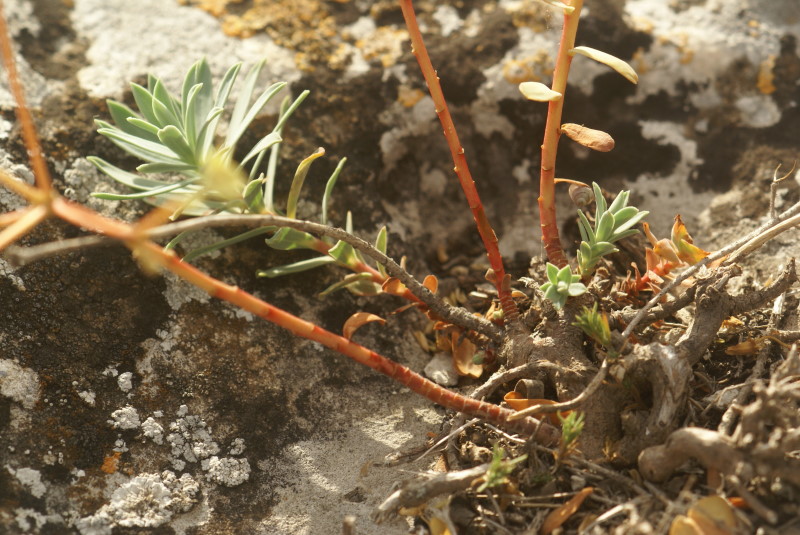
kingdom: Plantae
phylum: Tracheophyta
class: Magnoliopsida
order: Malpighiales
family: Euphorbiaceae
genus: Euphorbia
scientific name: Euphorbia petrophila
